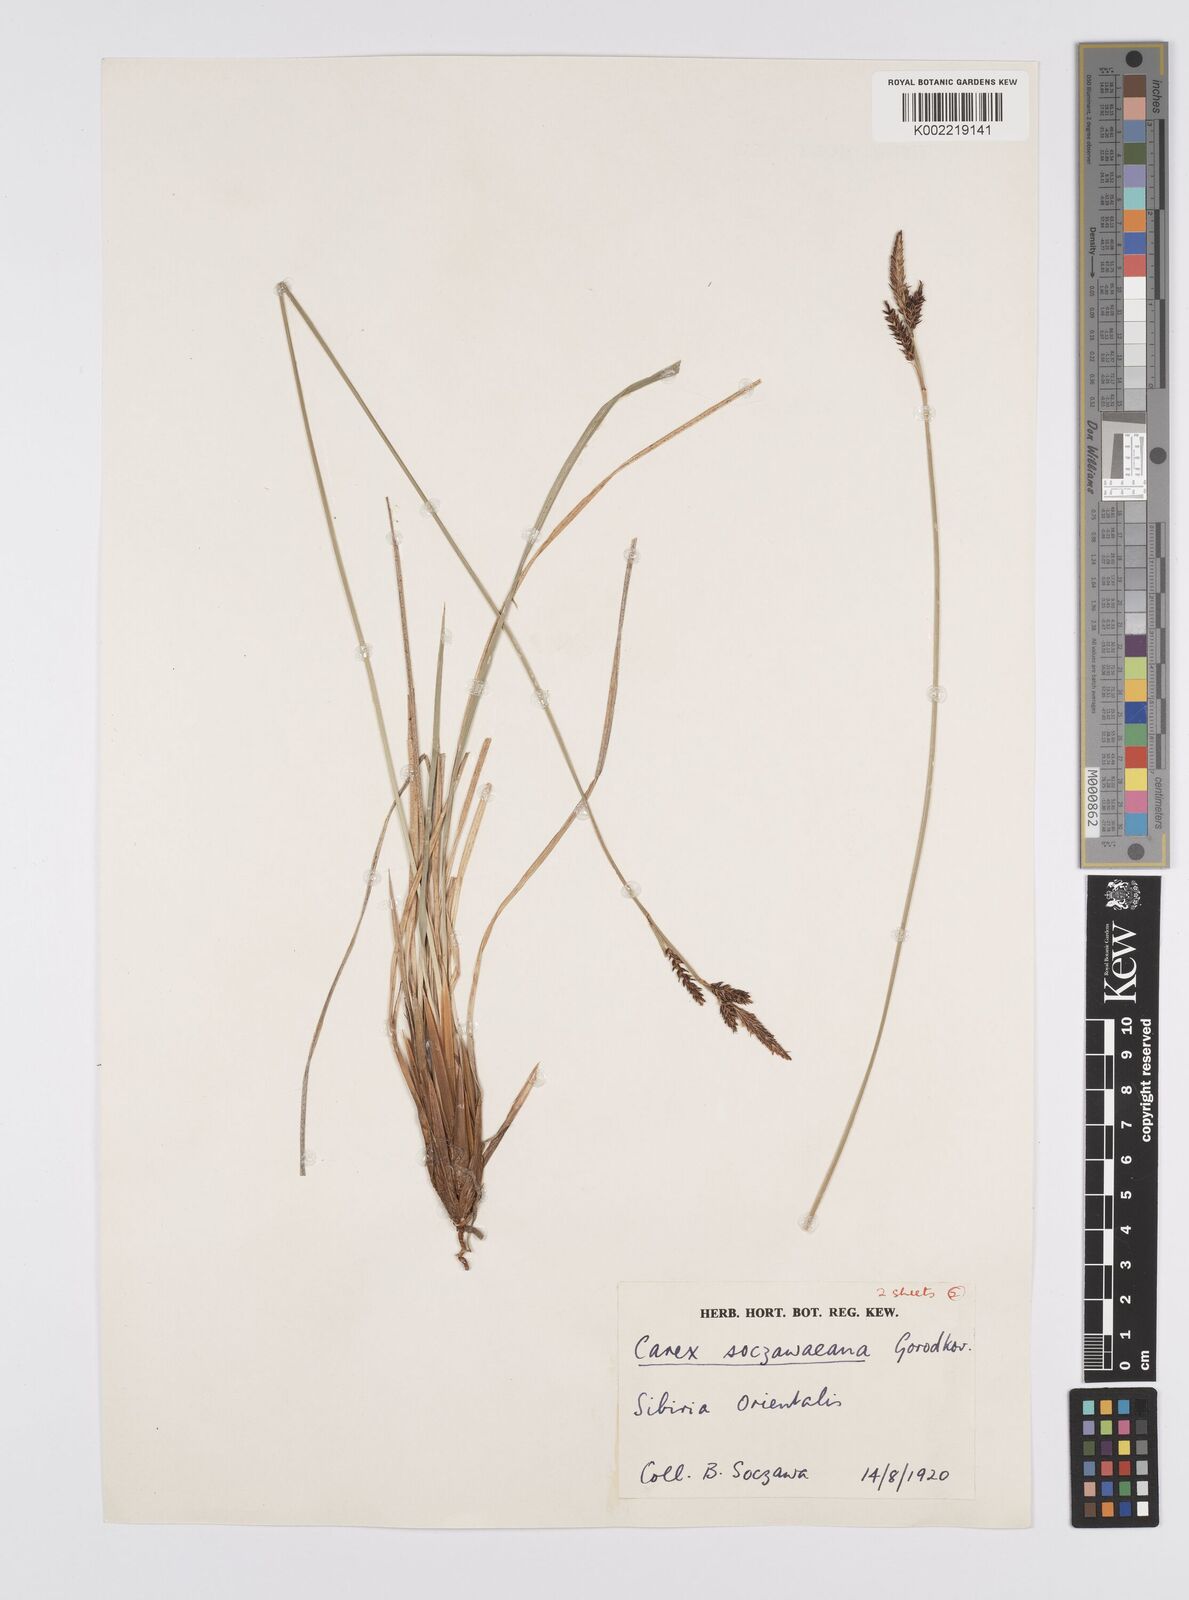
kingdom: Plantae
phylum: Tracheophyta
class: Liliopsida
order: Poales
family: Cyperaceae
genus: Carex
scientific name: Carex soczavaeana
